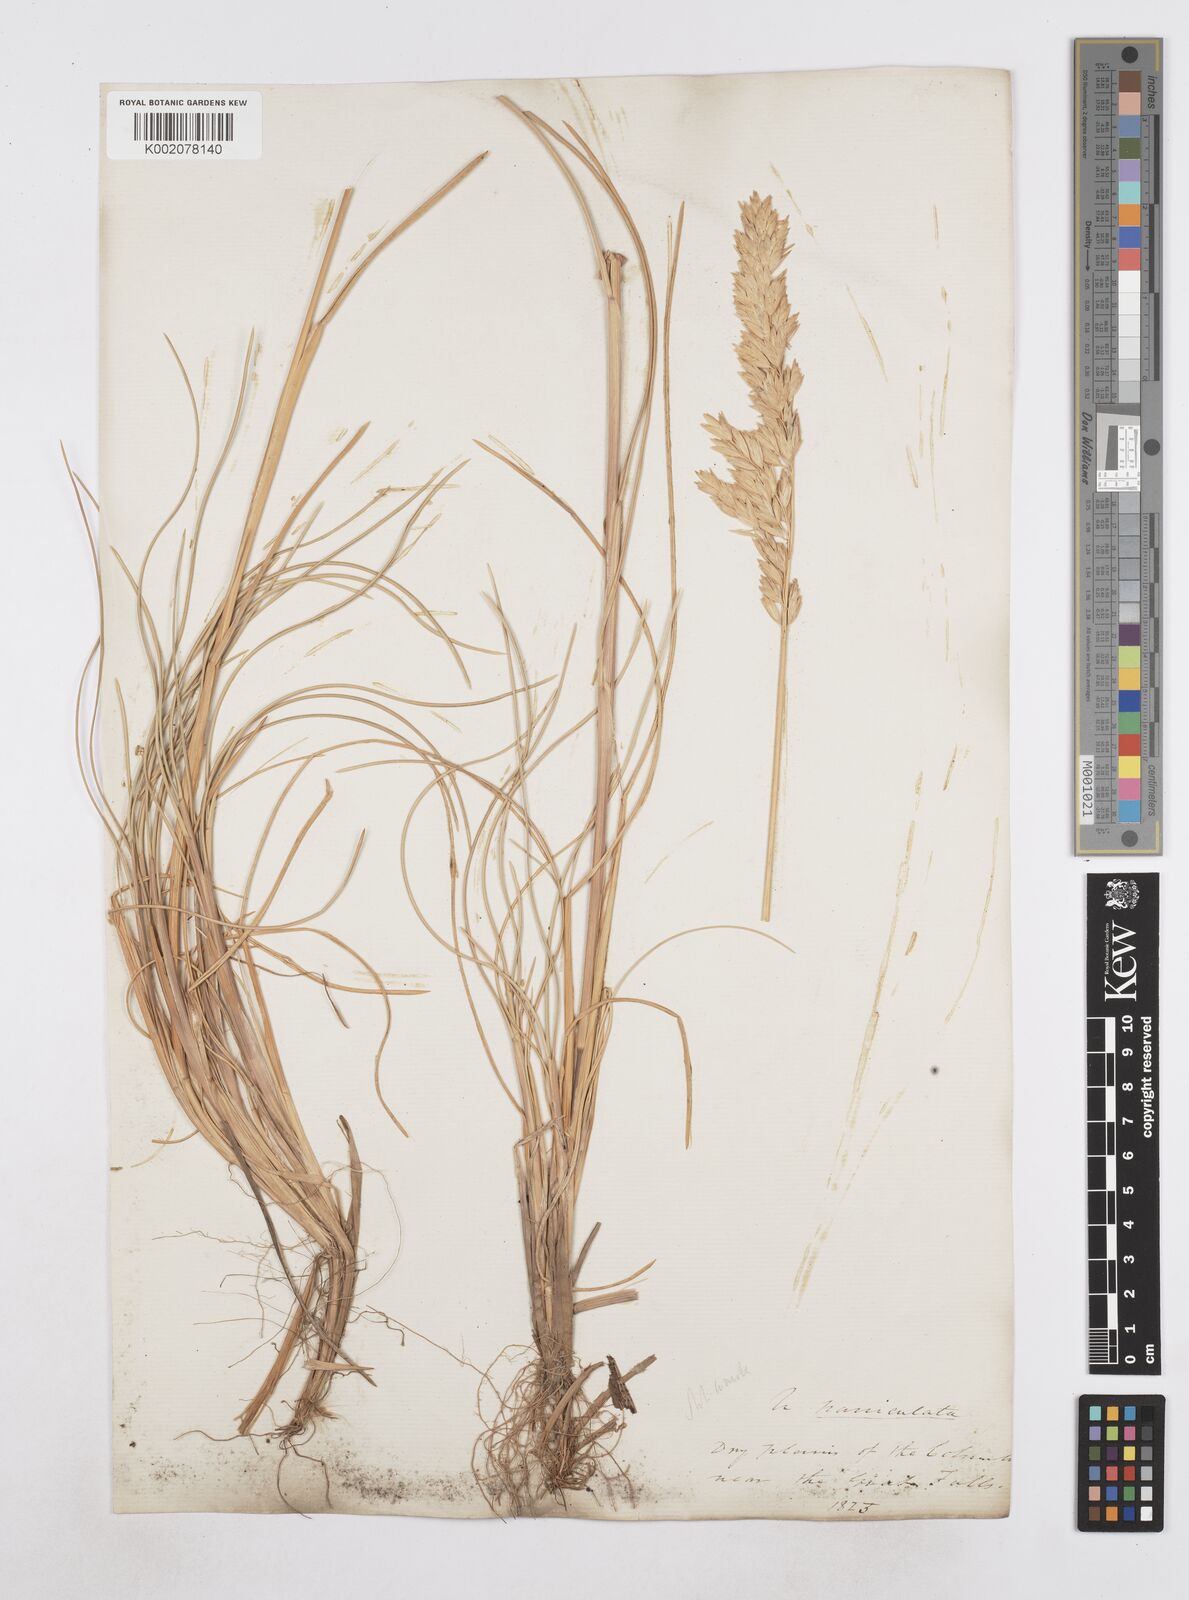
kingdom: Plantae
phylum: Tracheophyta
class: Liliopsida
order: Poales
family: Poaceae
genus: Poa
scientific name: Poa
